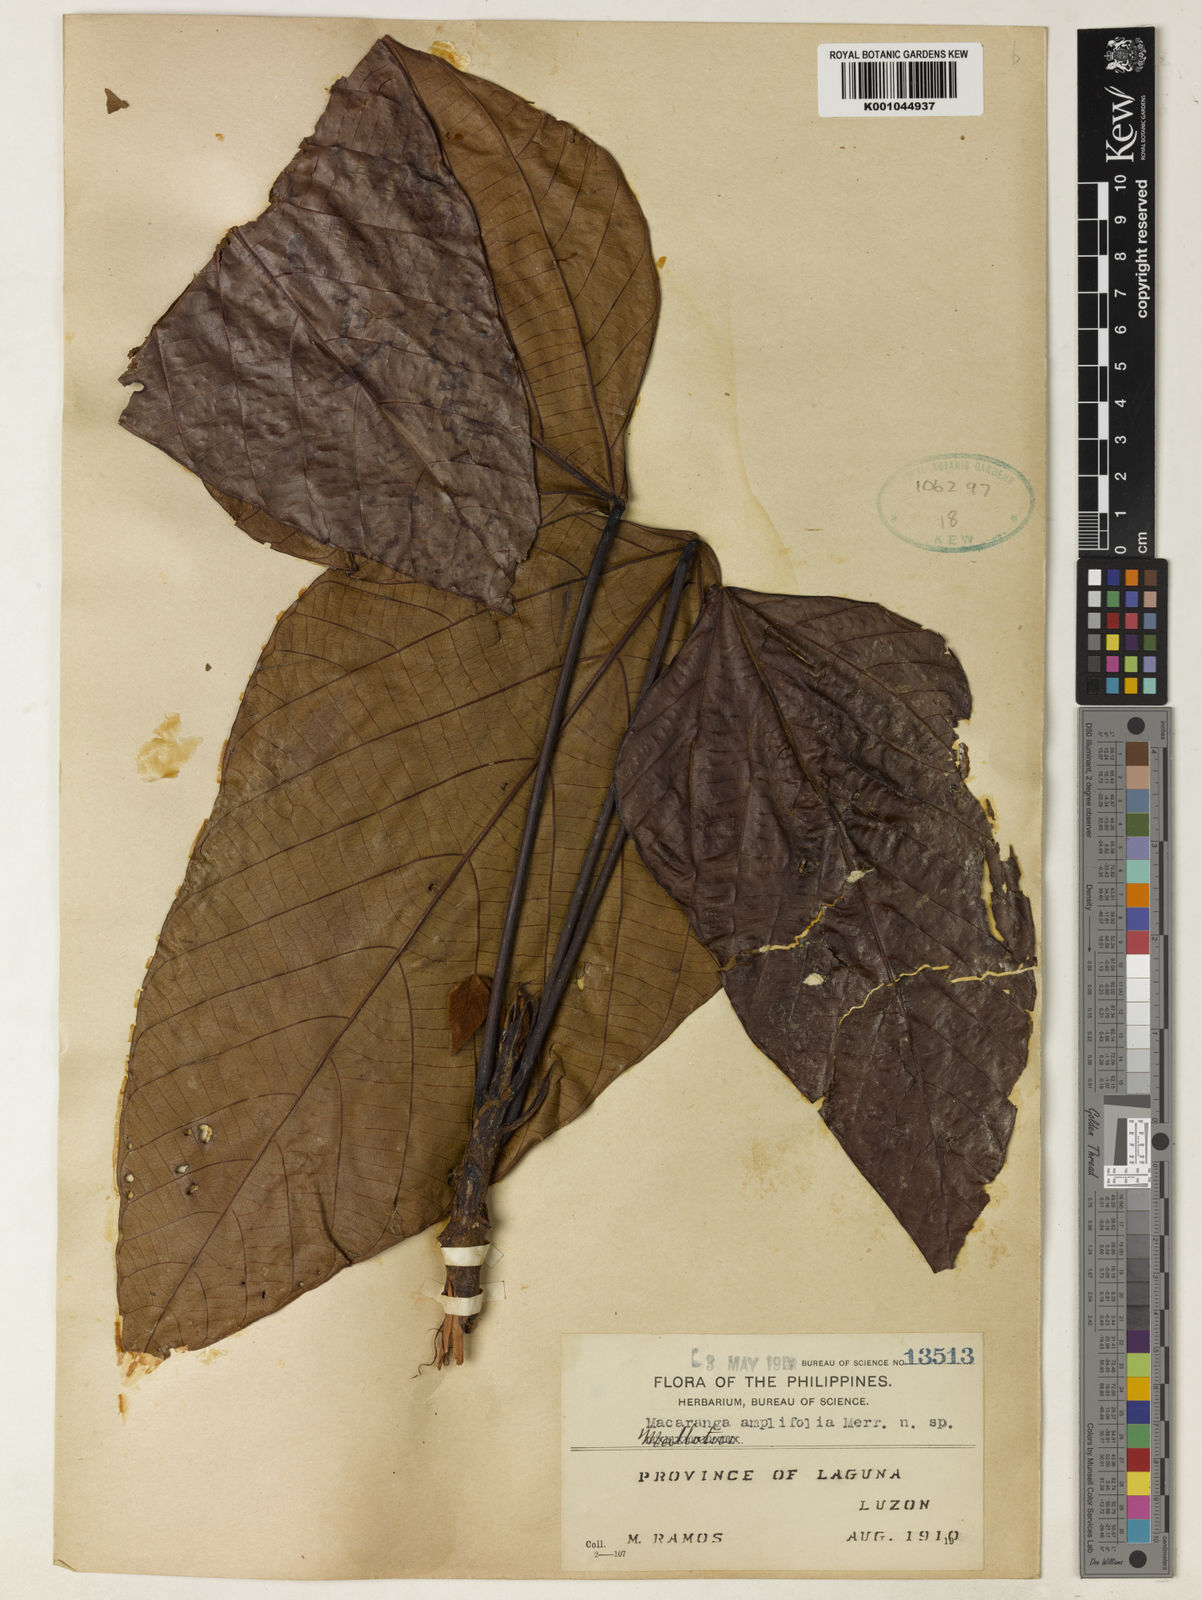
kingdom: Plantae
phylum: Tracheophyta
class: Magnoliopsida
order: Malpighiales
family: Euphorbiaceae
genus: Macaranga
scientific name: Macaranga amplifolia
